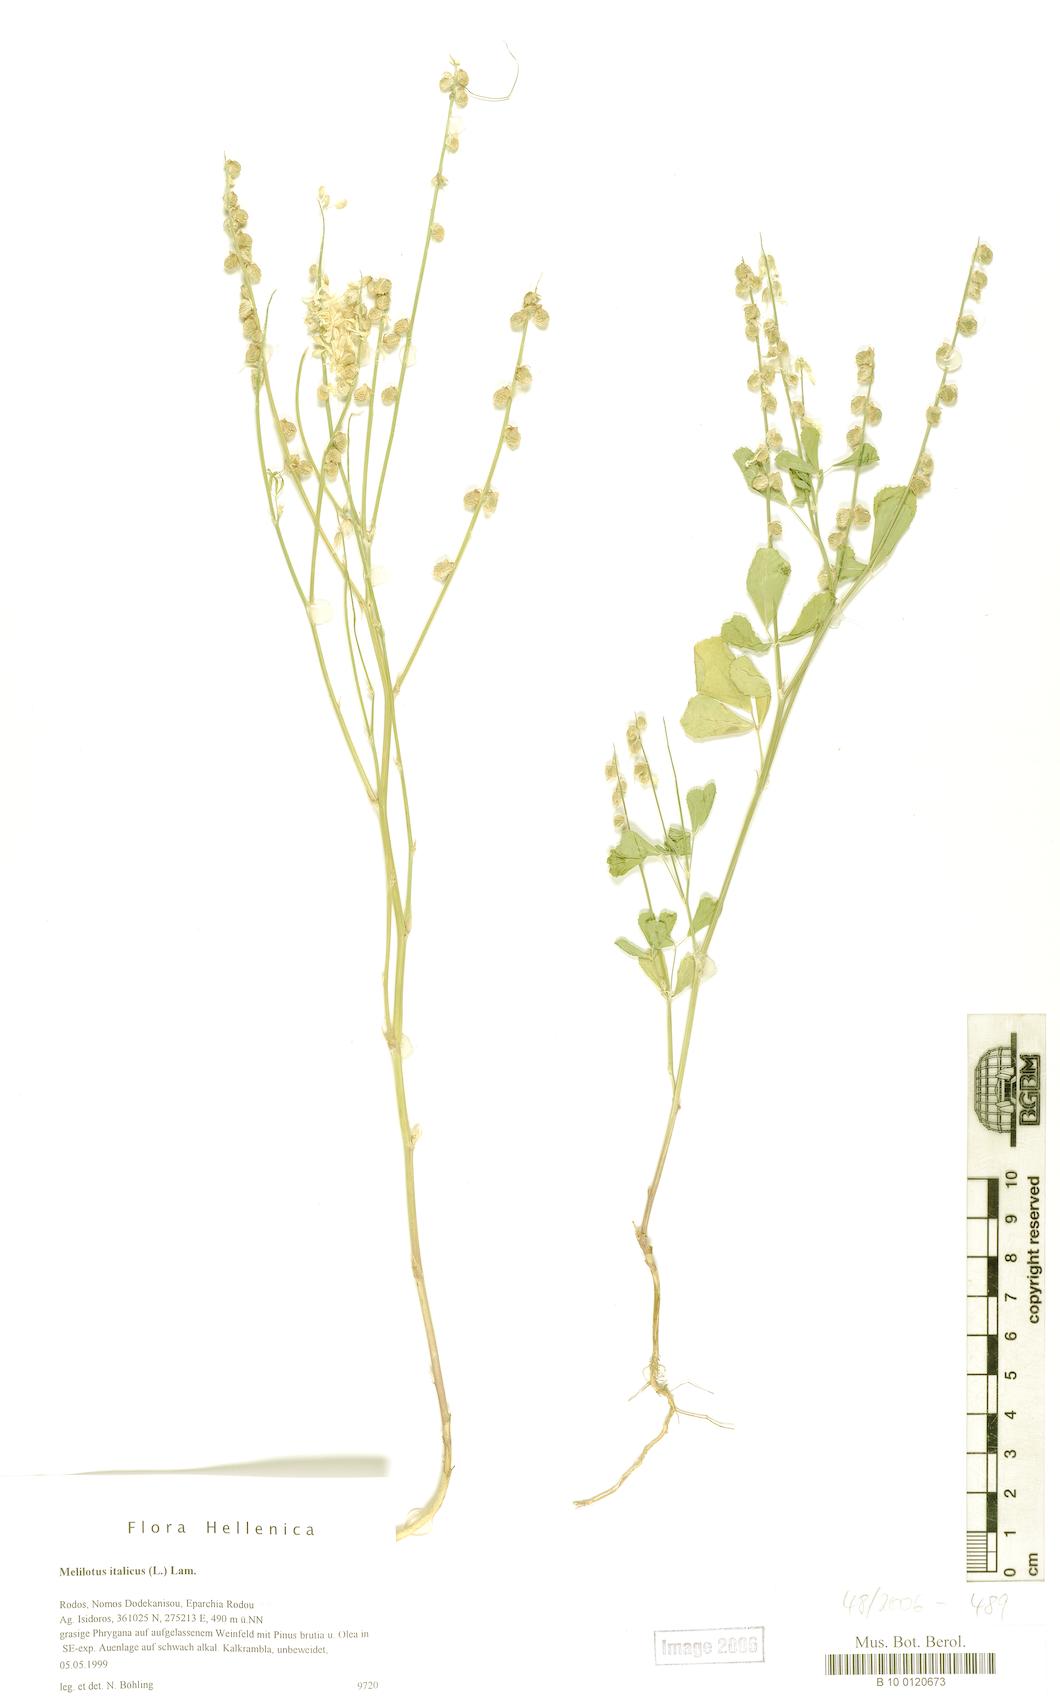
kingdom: Plantae
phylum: Tracheophyta
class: Magnoliopsida
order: Fabales
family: Fabaceae
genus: Melilotus
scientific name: Melilotus italicus
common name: Italian melilot
